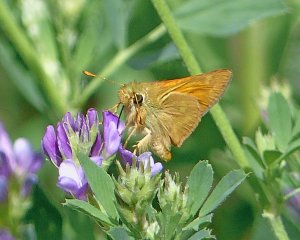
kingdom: Animalia
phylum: Arthropoda
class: Insecta
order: Lepidoptera
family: Hesperiidae
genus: Ochlodes
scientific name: Ochlodes sylvanoides
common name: Woodland Skipper
